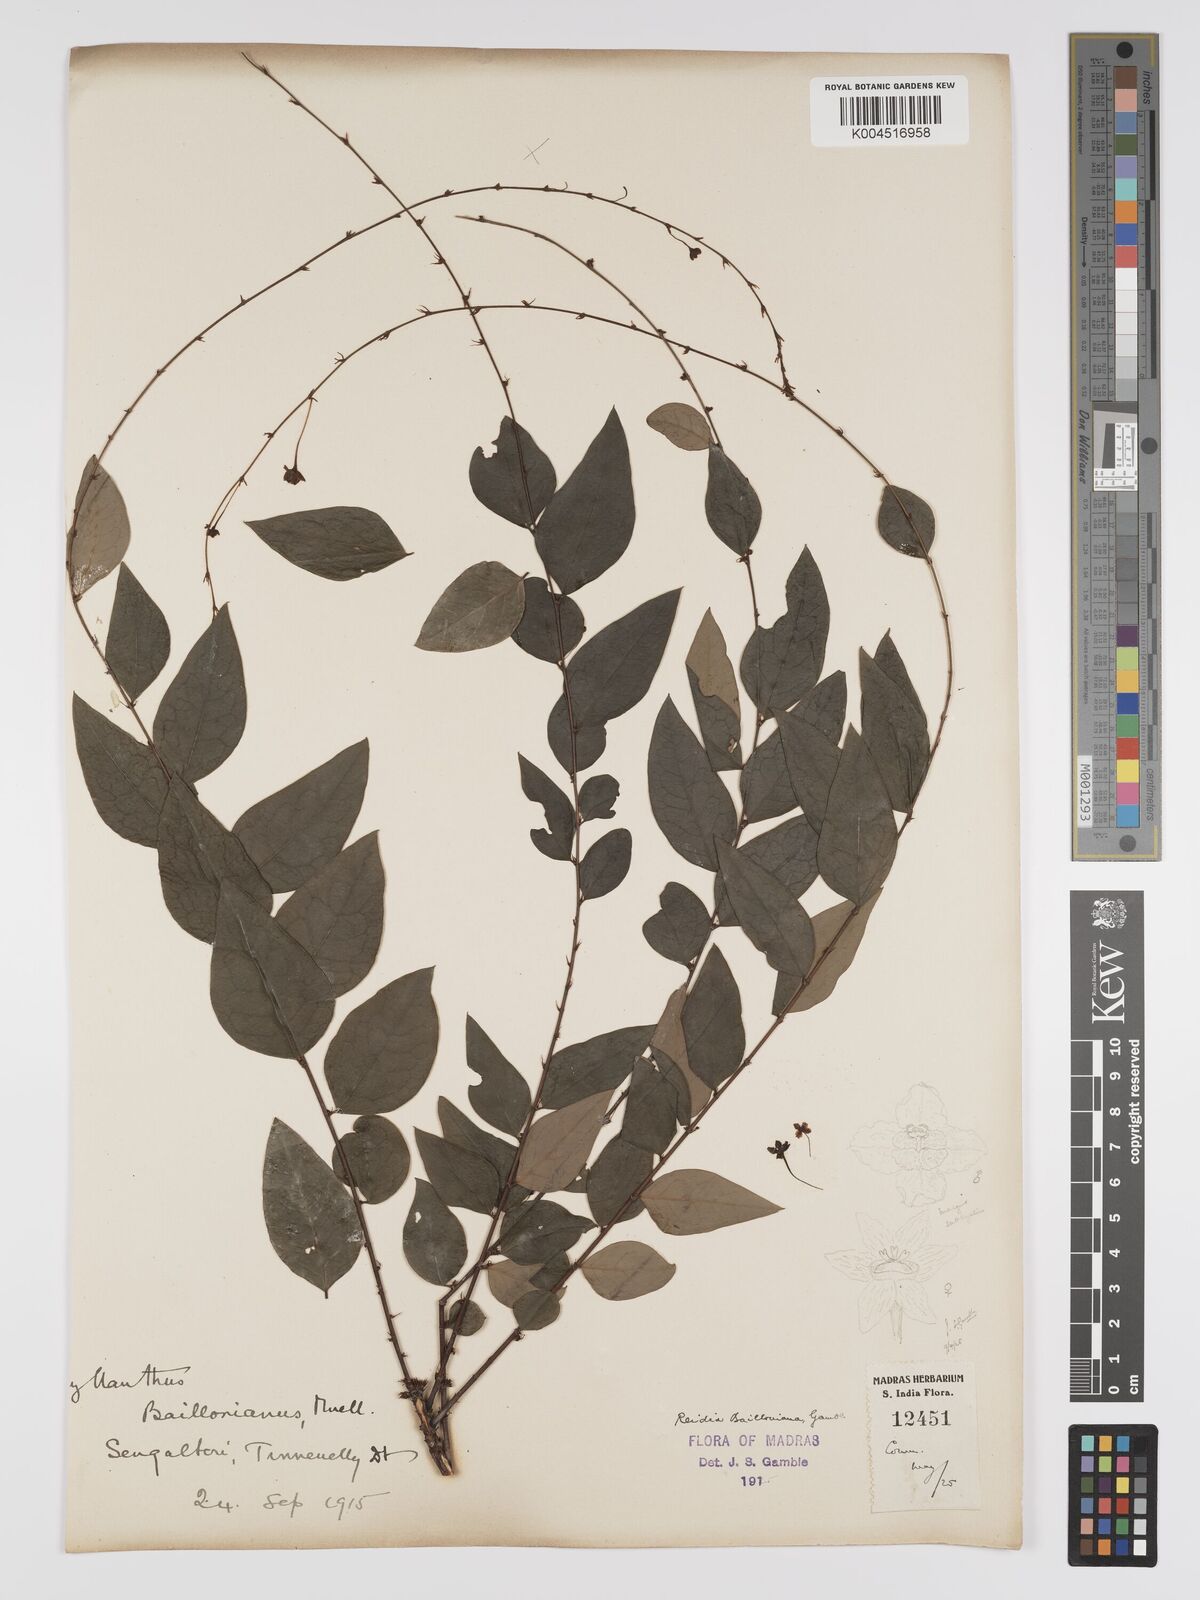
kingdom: Plantae
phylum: Tracheophyta
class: Magnoliopsida
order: Malpighiales
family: Phyllanthaceae
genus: Phyllanthus
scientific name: Phyllanthus baillonianus
